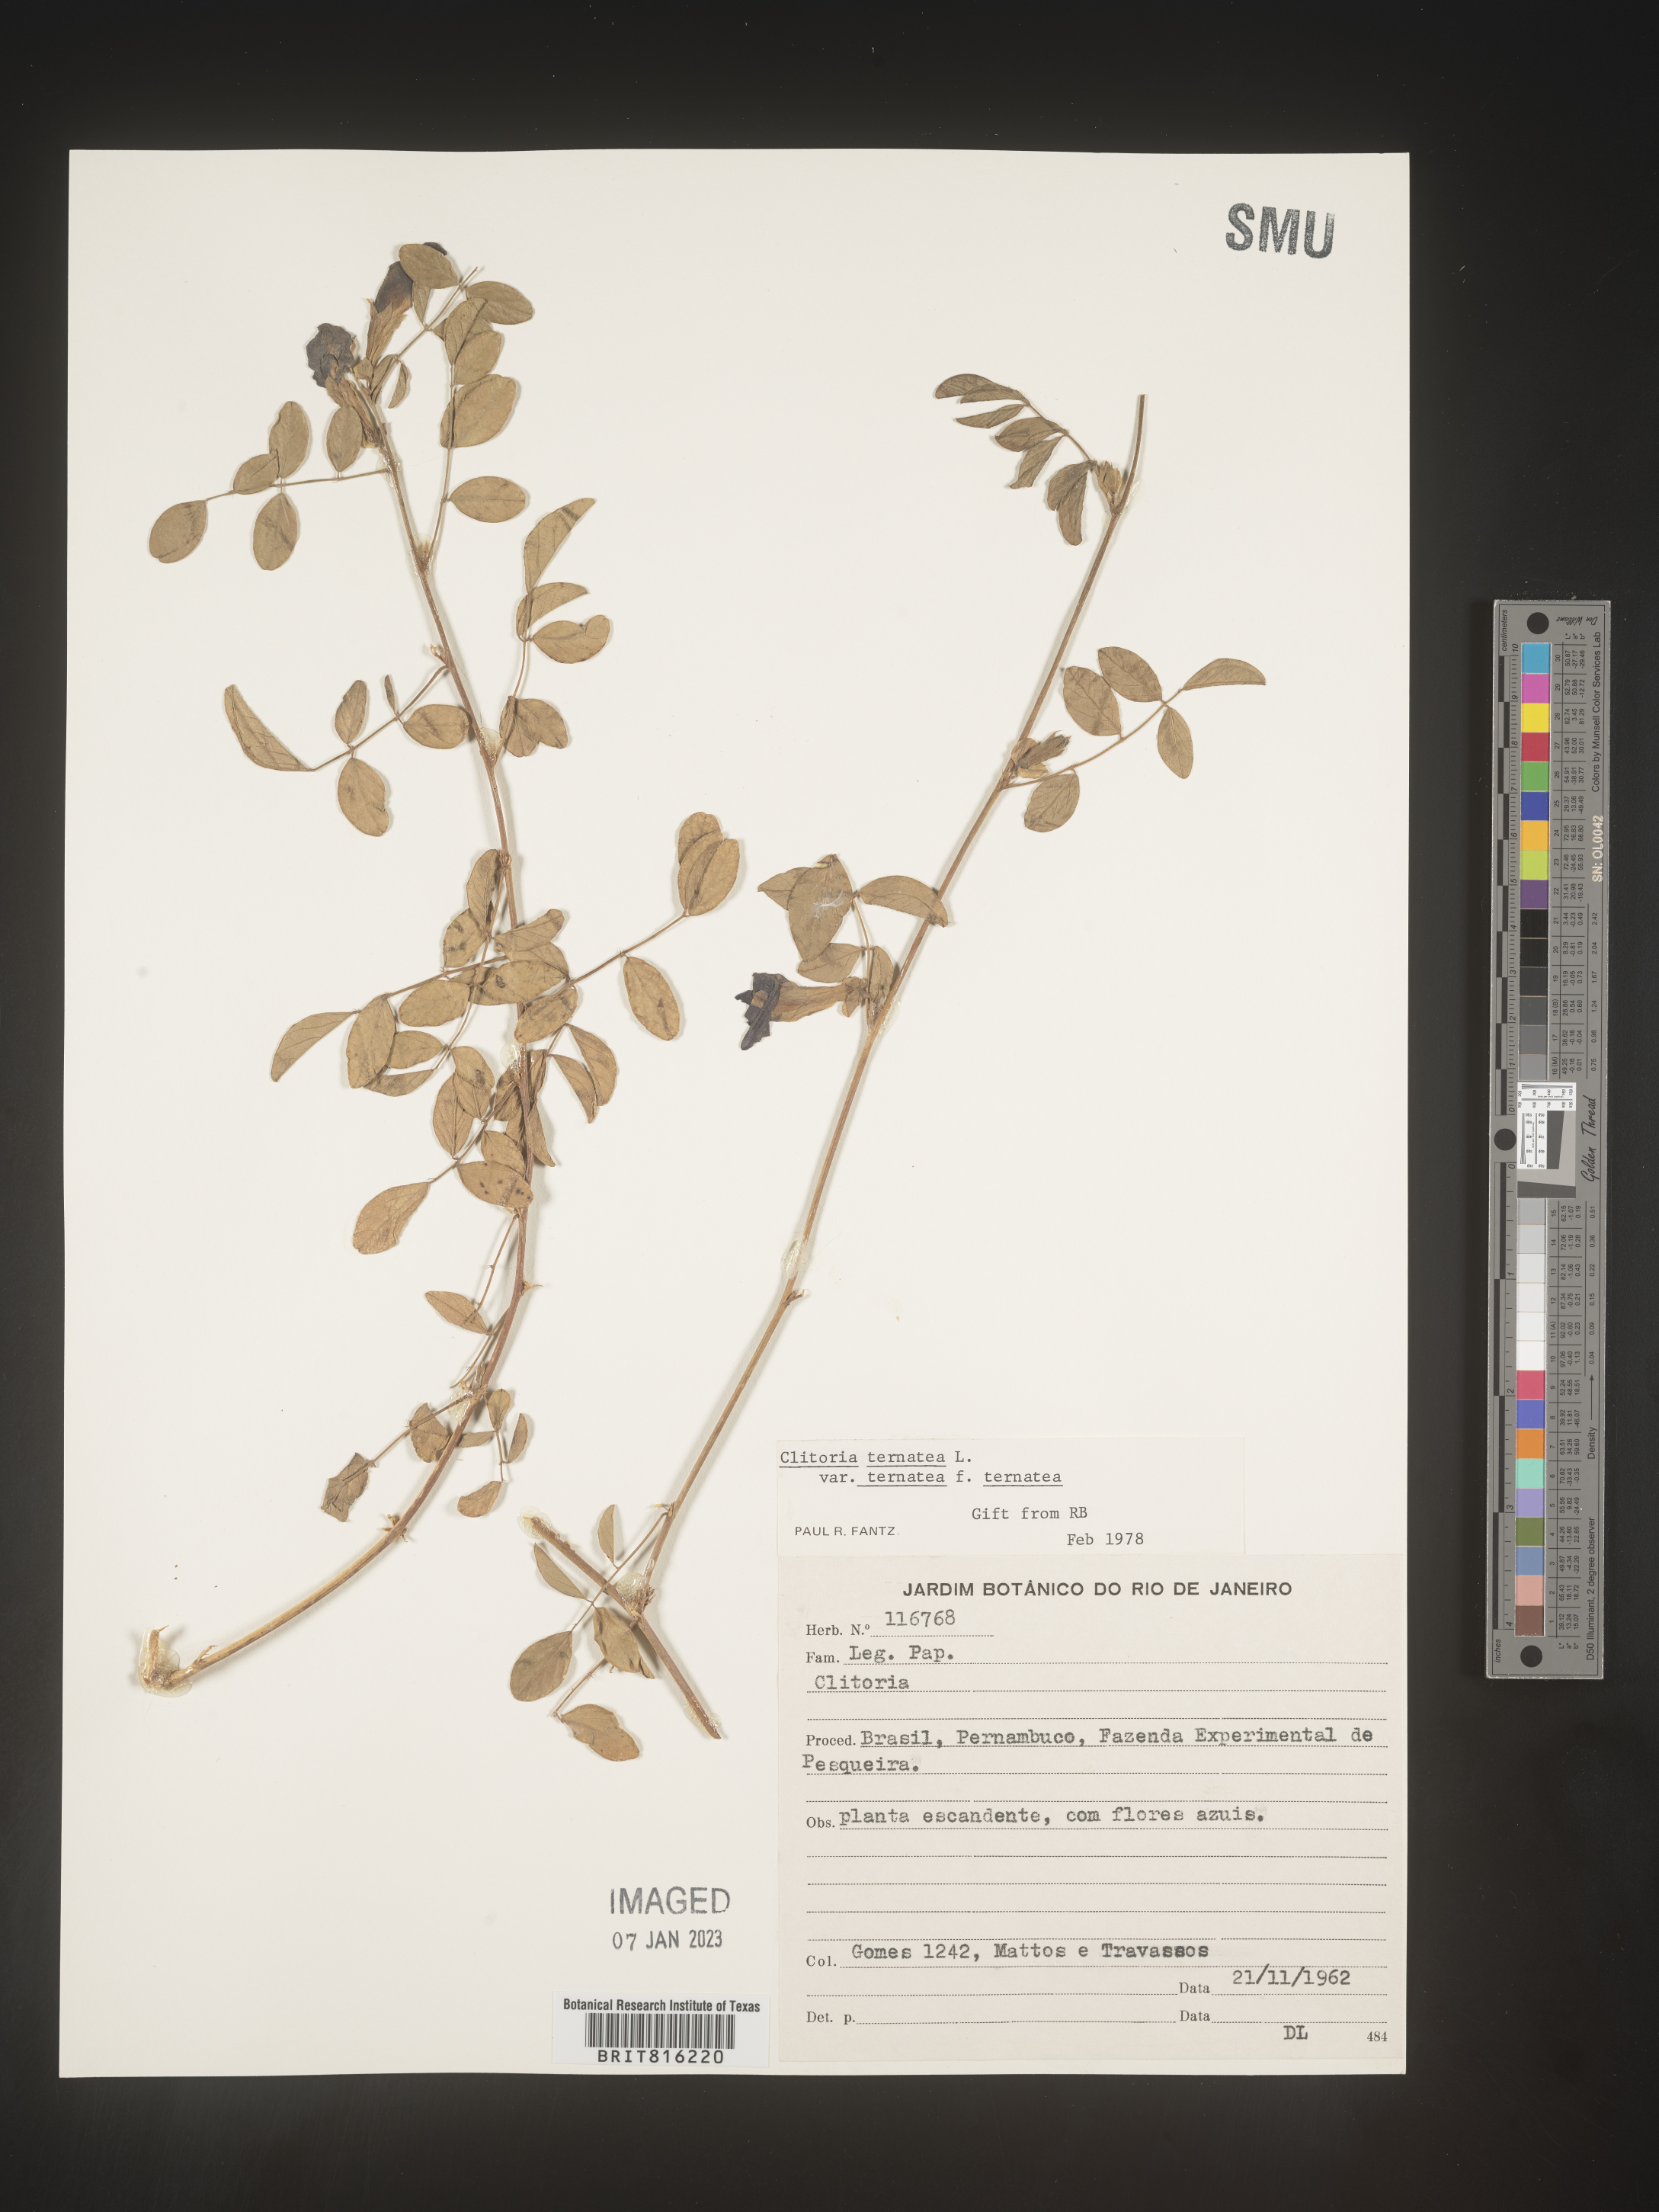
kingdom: Plantae
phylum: Tracheophyta
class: Magnoliopsida
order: Fabales
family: Fabaceae
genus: Clitoria
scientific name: Clitoria
